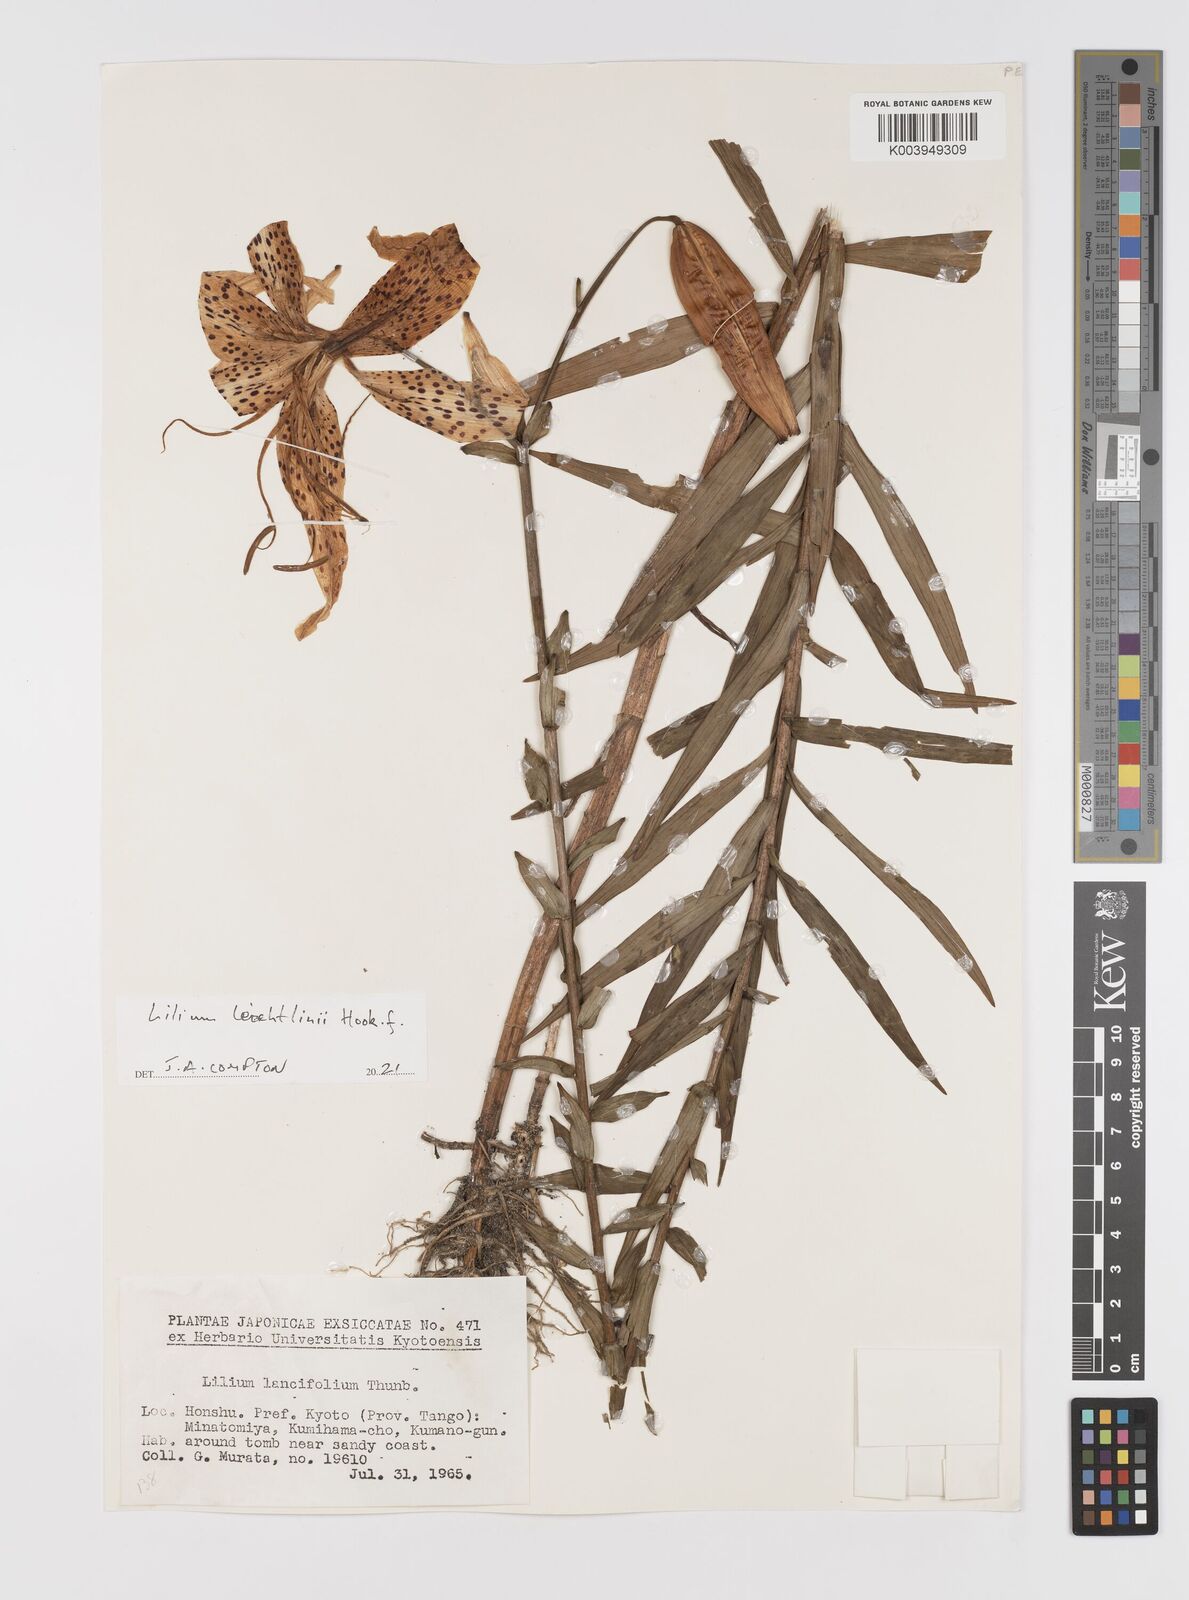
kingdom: Plantae
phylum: Tracheophyta
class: Liliopsida
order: Liliales
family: Liliaceae
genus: Lilium
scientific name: Lilium leichtlinii
